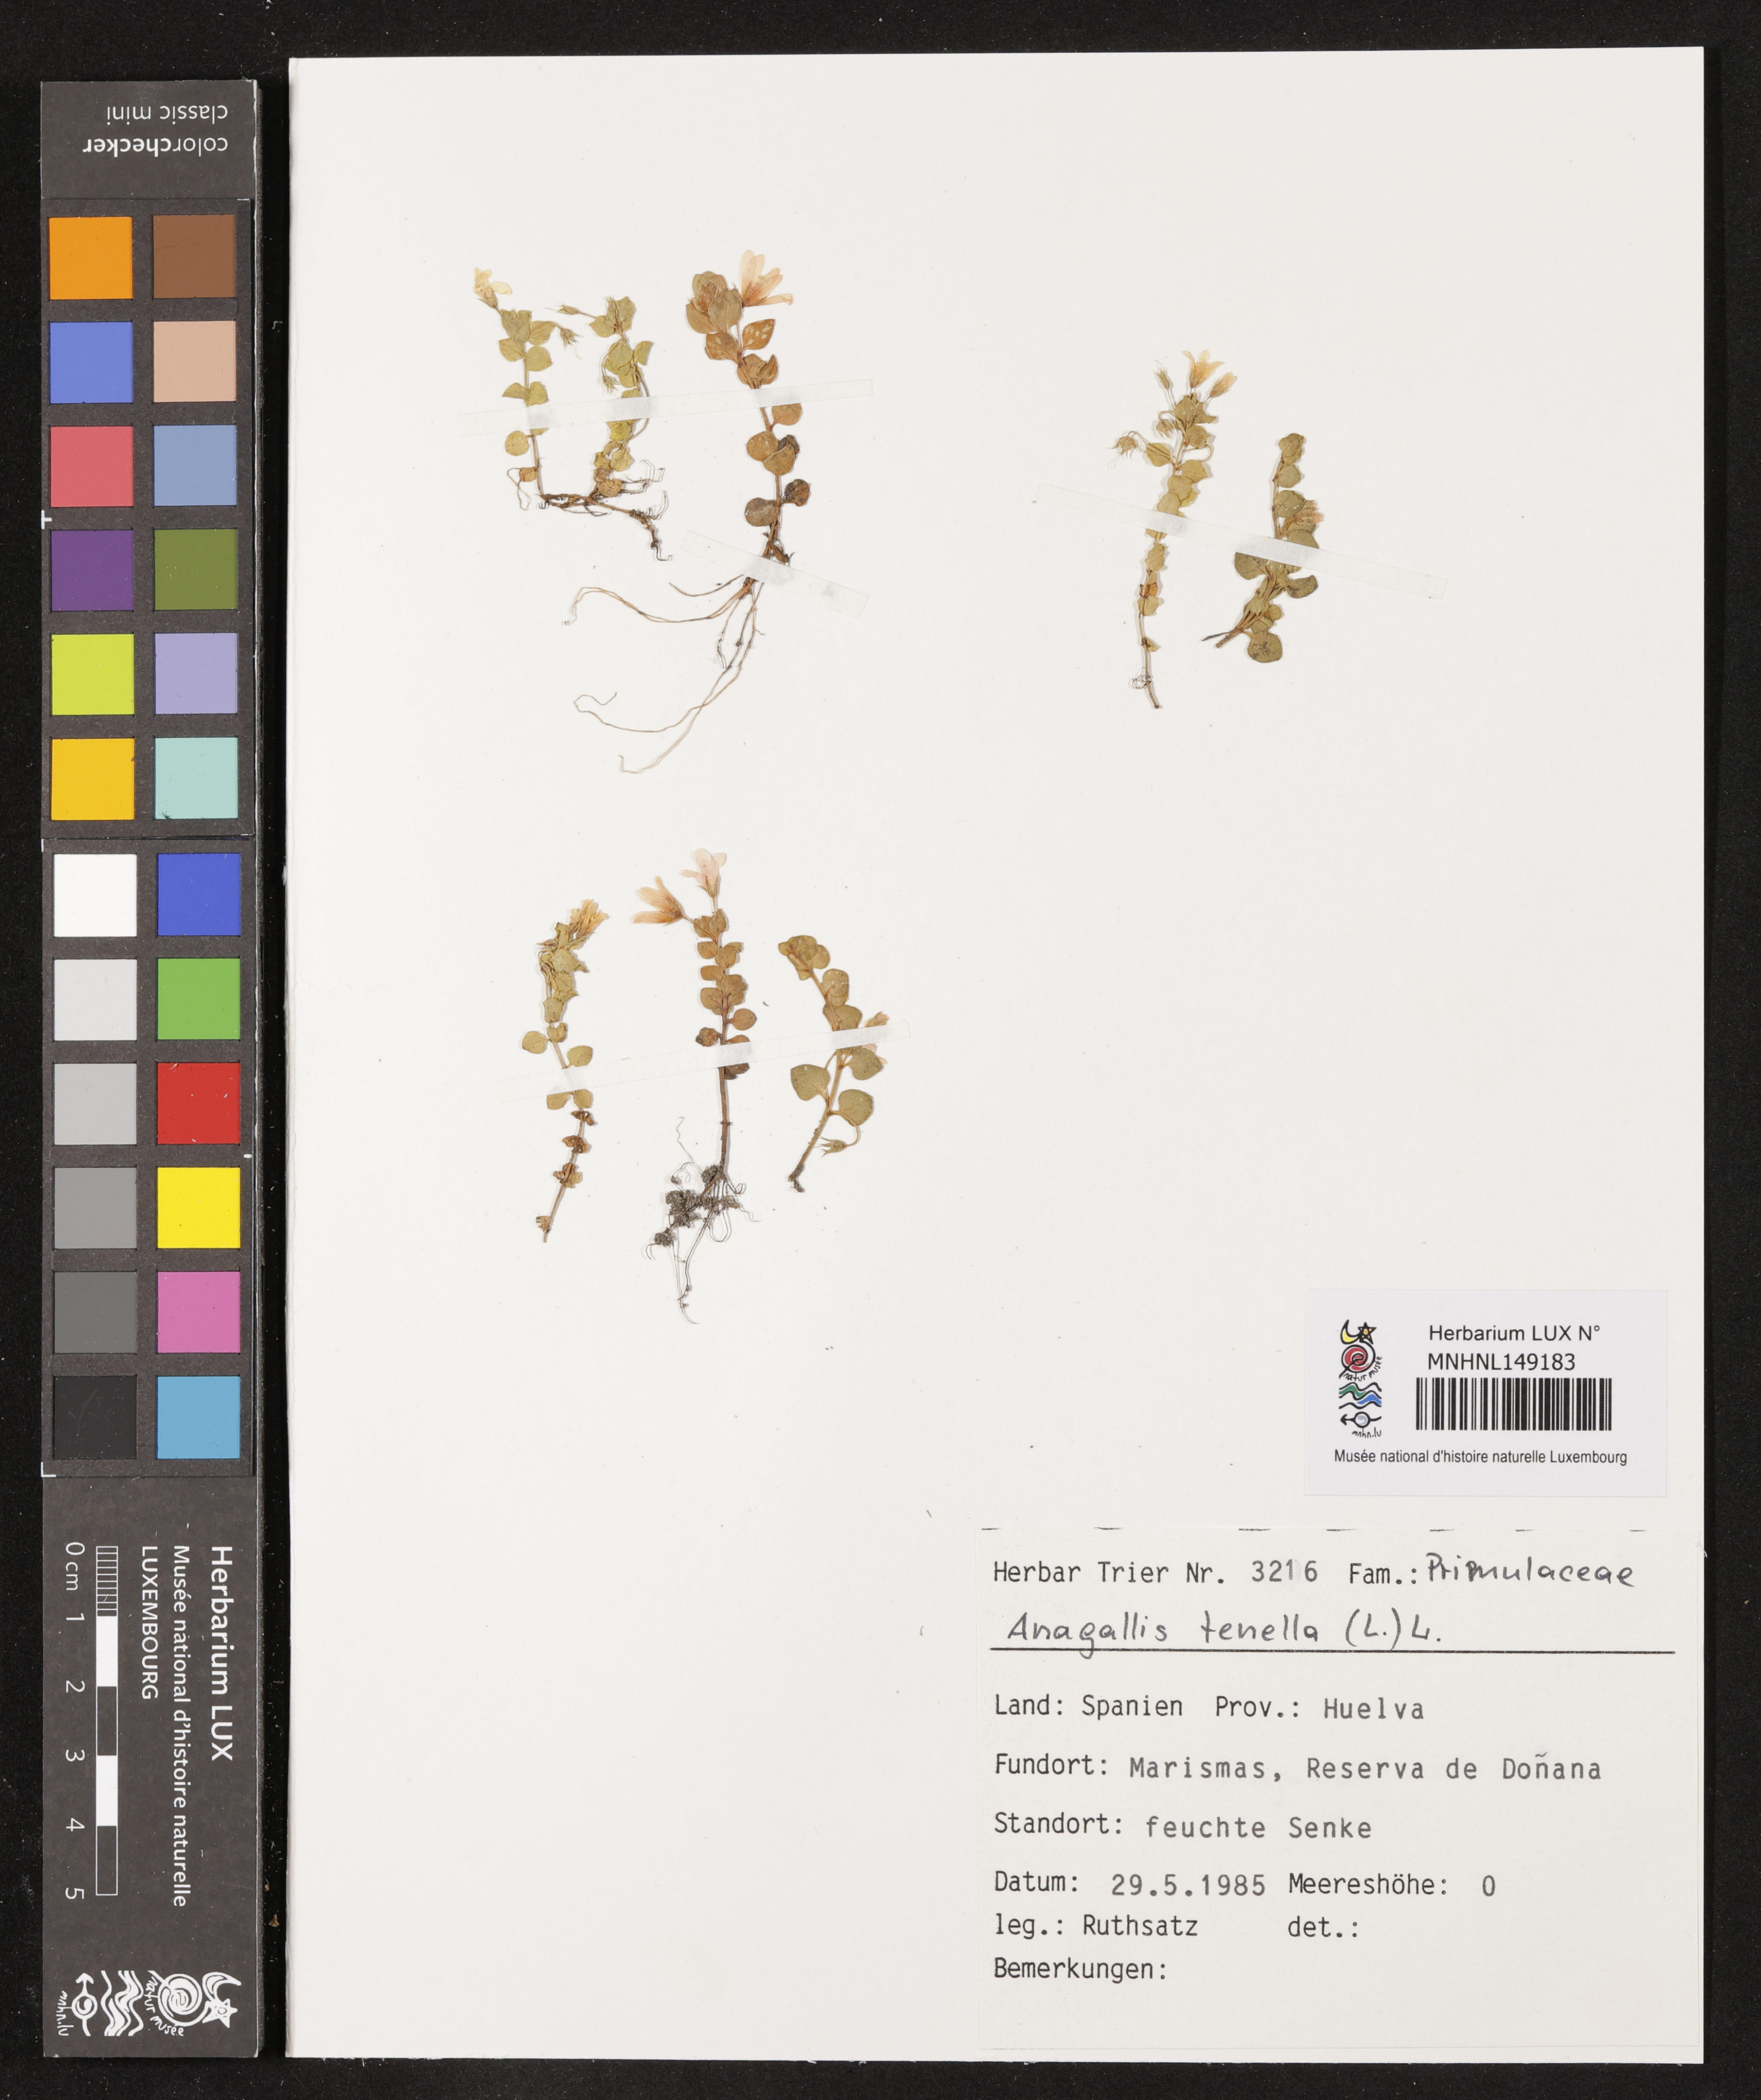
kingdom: Plantae
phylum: Tracheophyta
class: Magnoliopsida
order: Ericales
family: Primulaceae
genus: Lysimachia
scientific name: Lysimachia tenella
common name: European bog pimpernel
